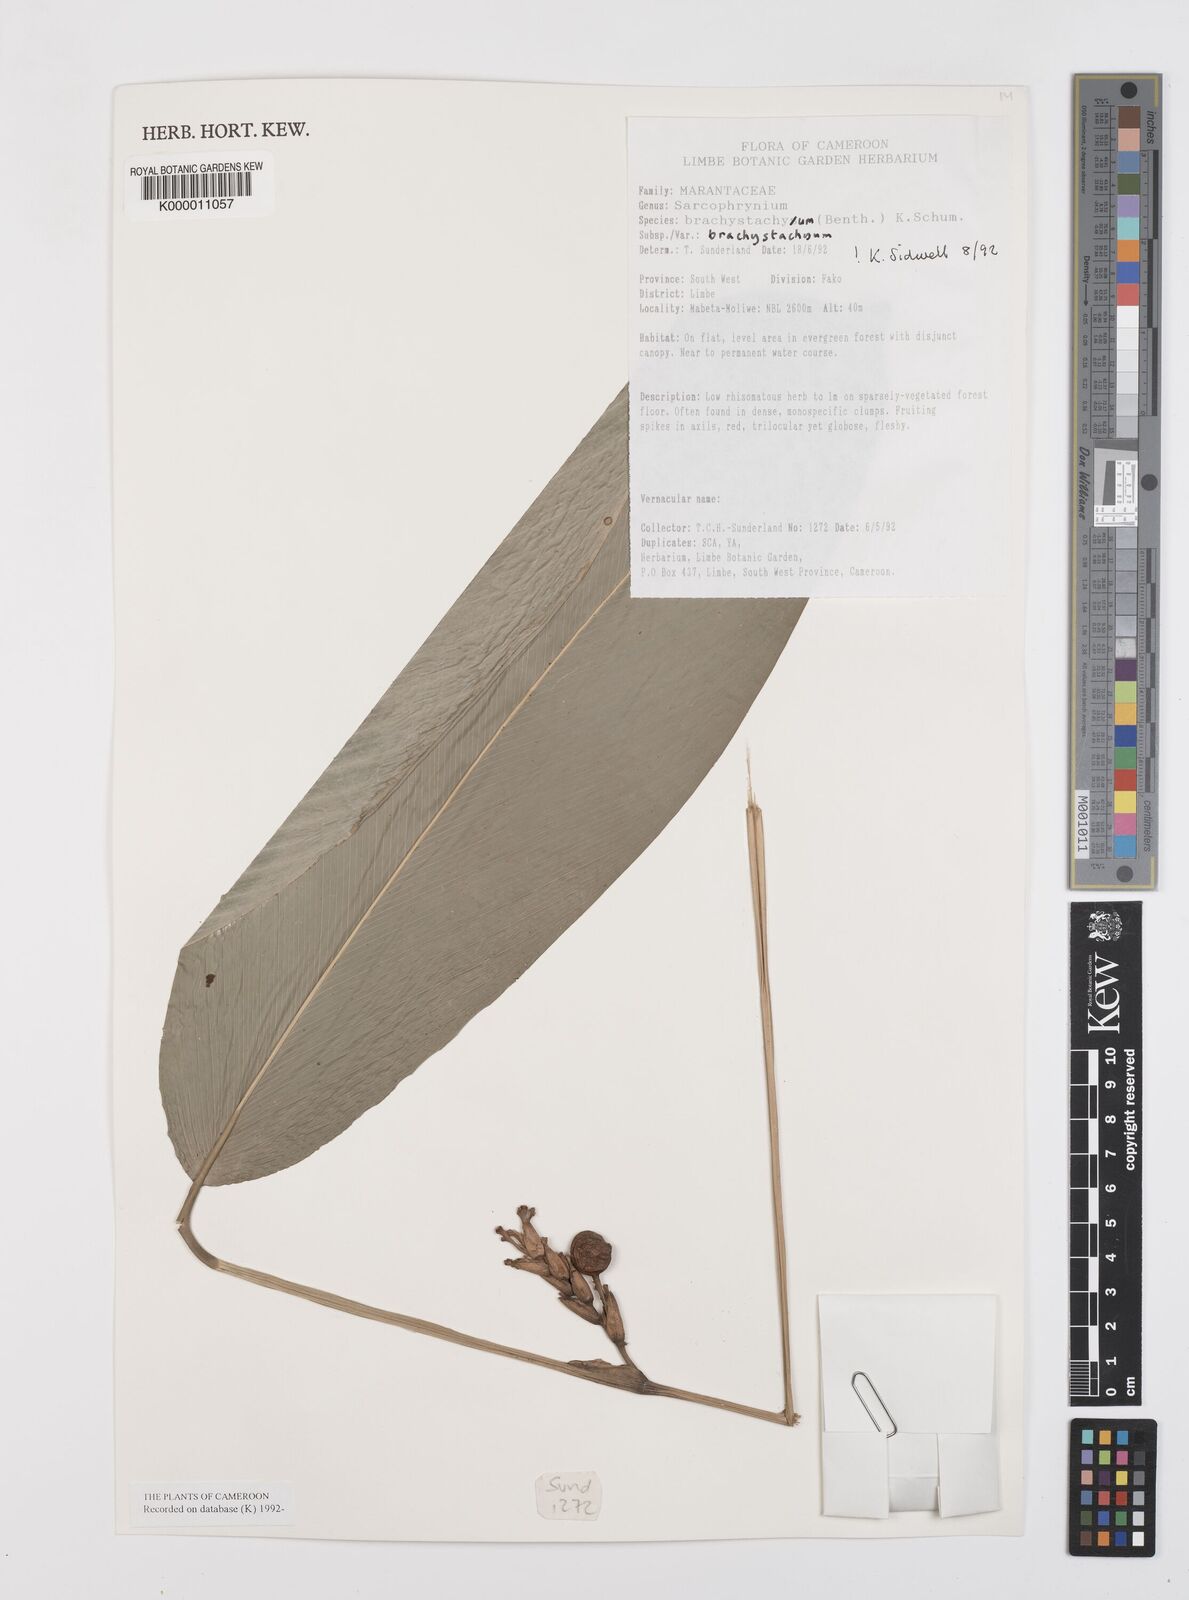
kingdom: Plantae
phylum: Tracheophyta
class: Liliopsida
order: Zingiberales
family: Marantaceae
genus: Sarcophrynium
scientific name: Sarcophrynium
